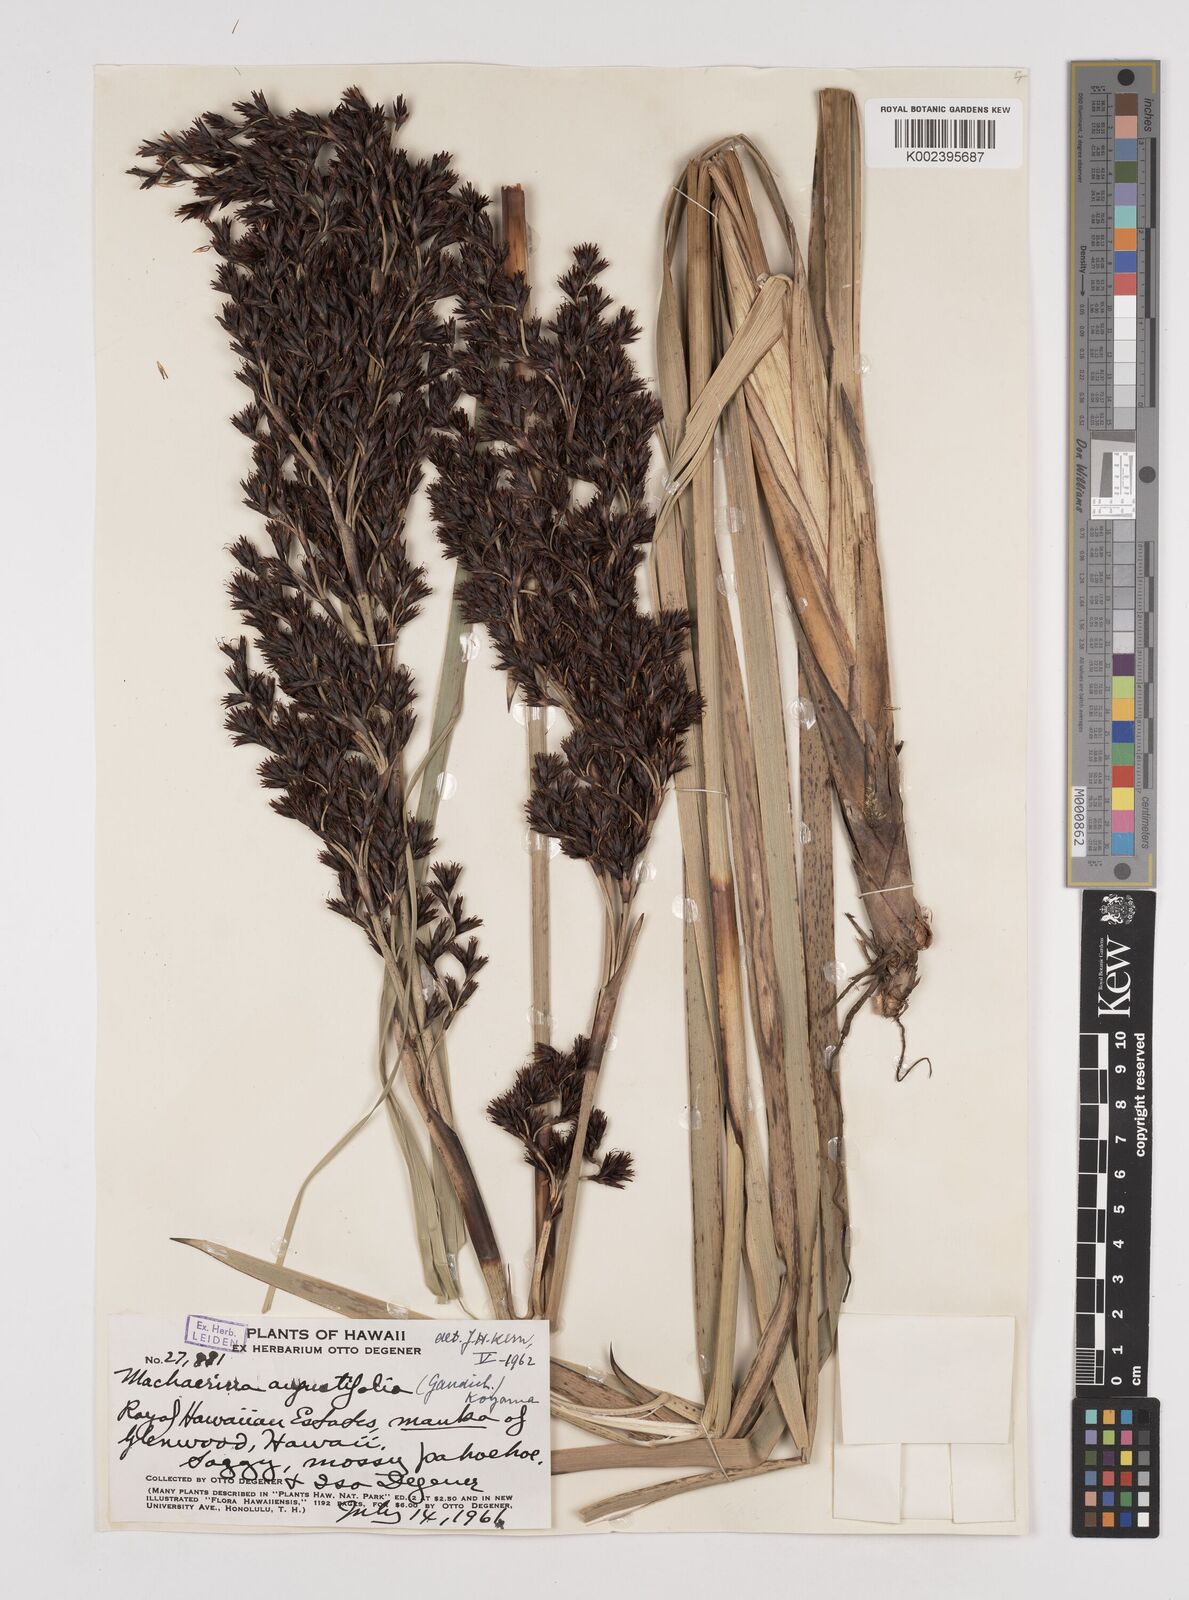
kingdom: Plantae
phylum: Tracheophyta
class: Liliopsida
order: Poales
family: Cyperaceae
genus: Machaerina
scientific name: Machaerina angustifolia
